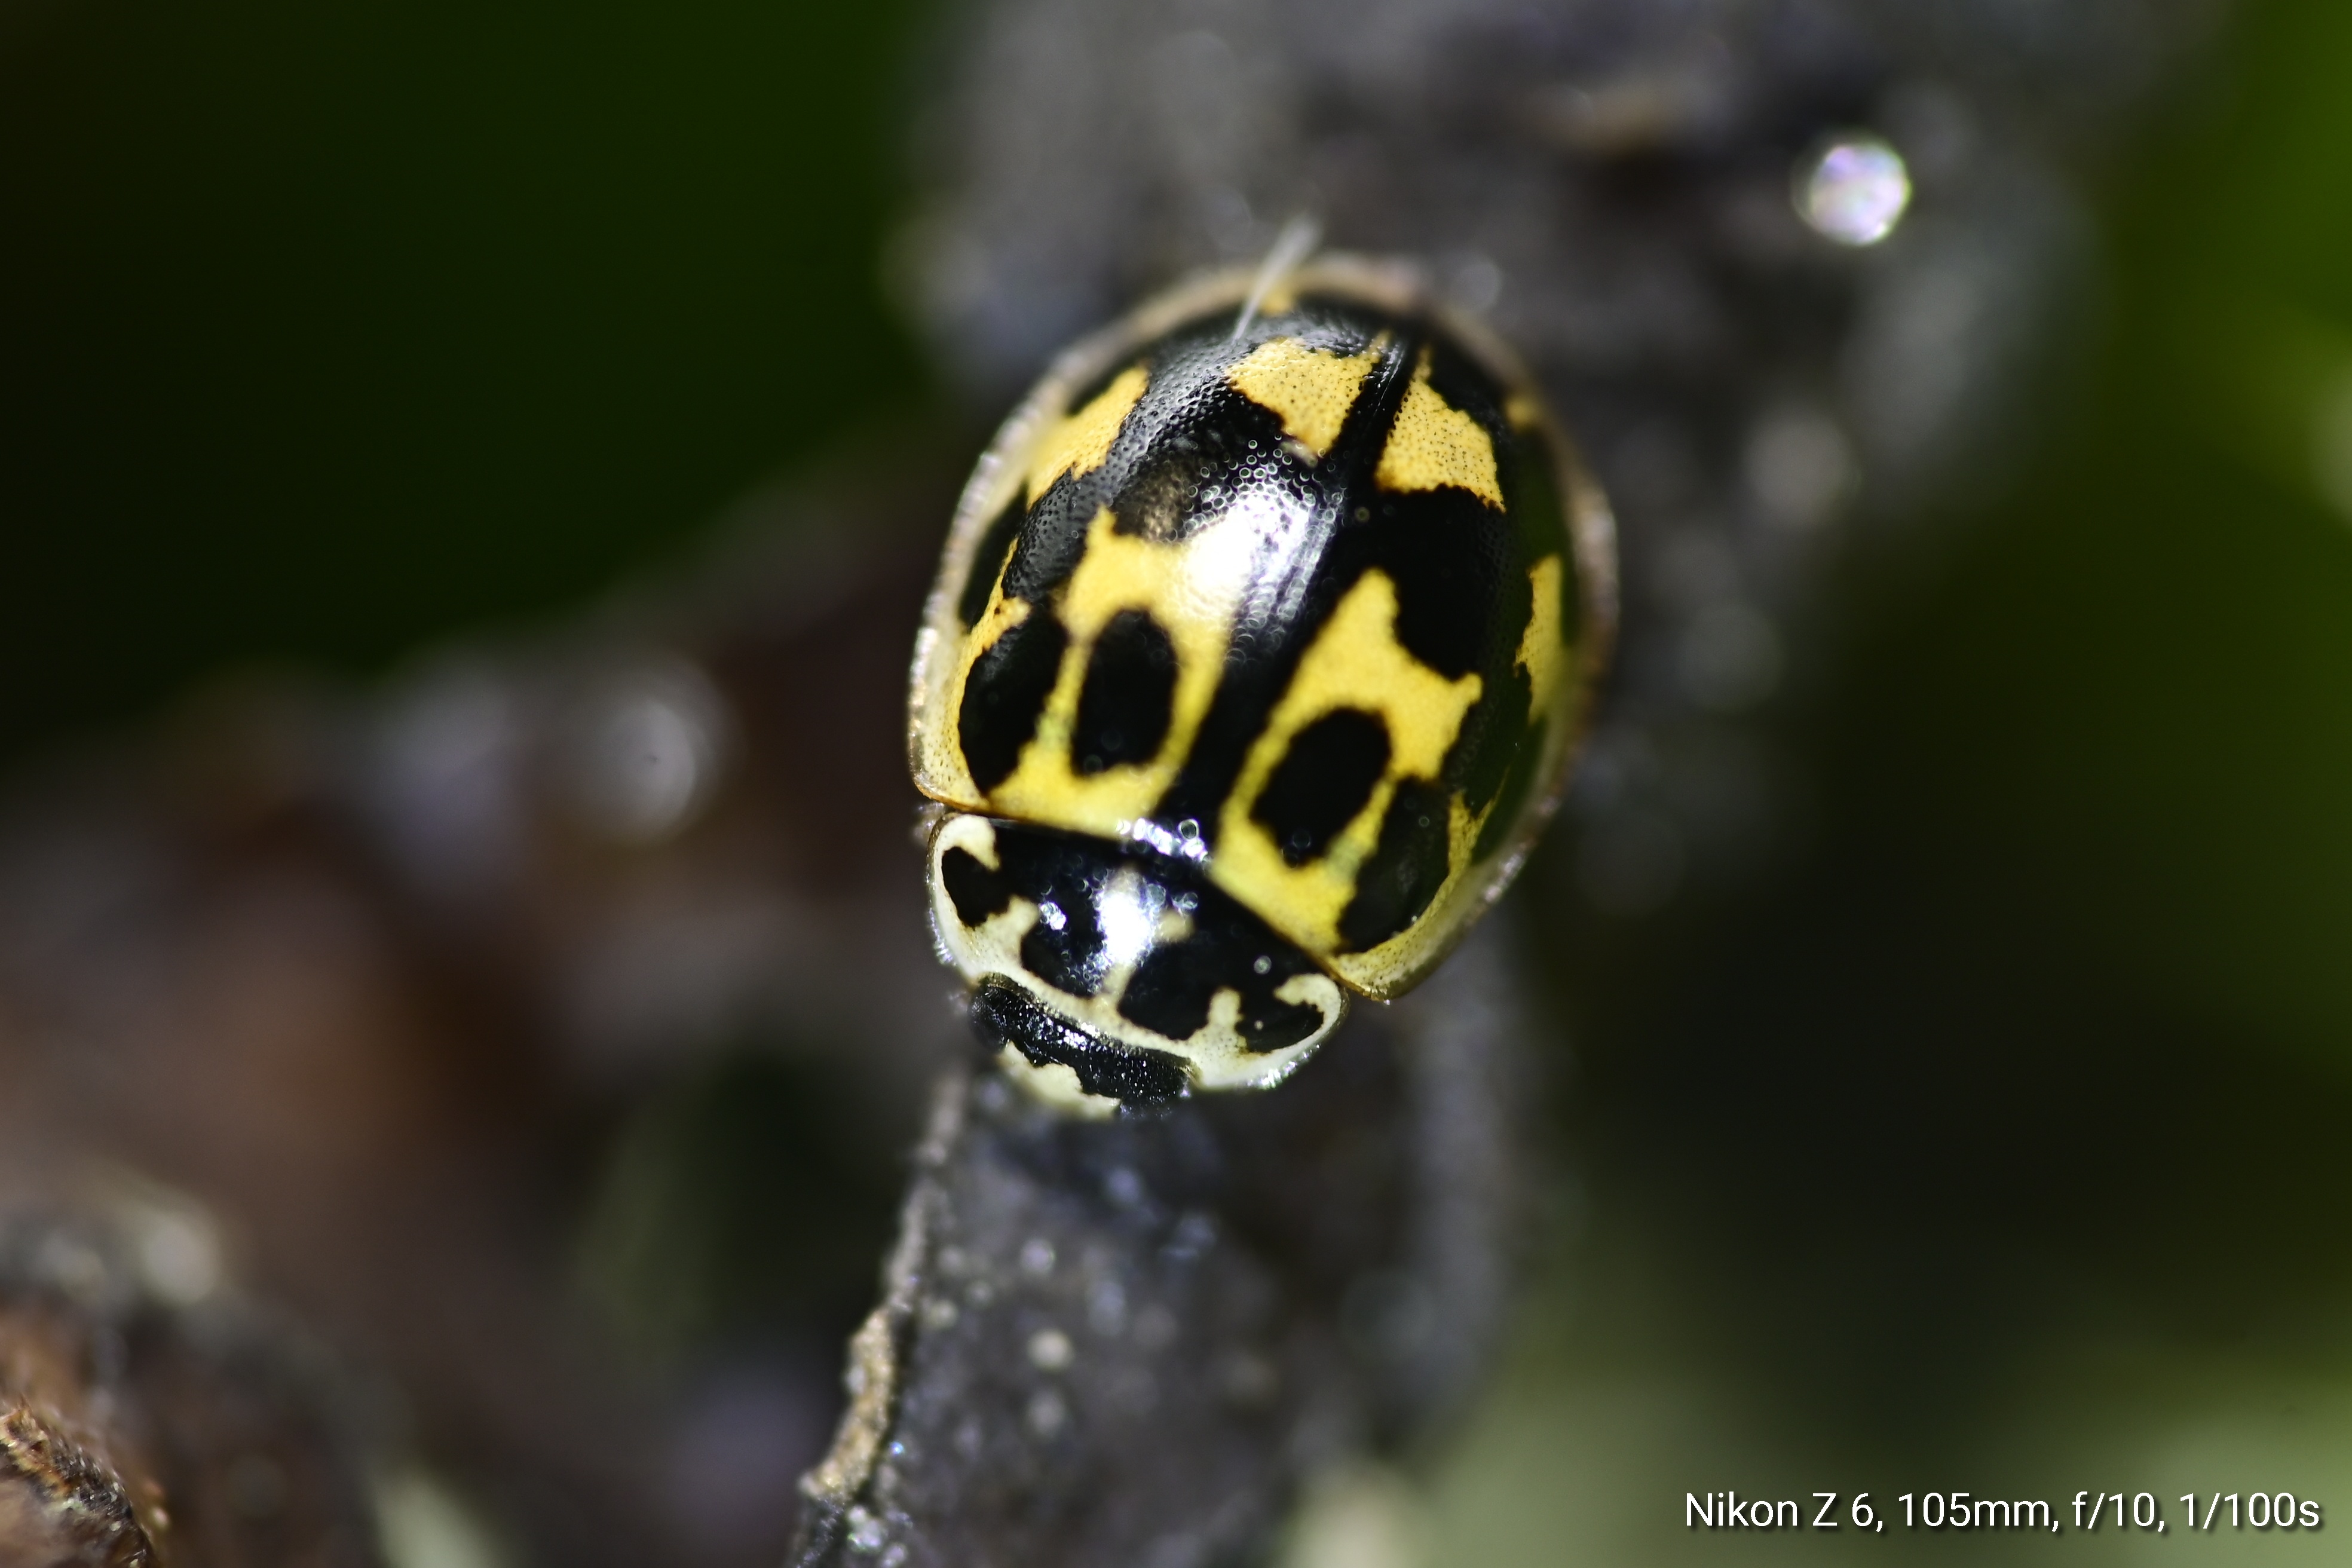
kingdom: Animalia
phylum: Arthropoda
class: Insecta
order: Coleoptera
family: Coccinellidae
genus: Oenopia
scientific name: Oenopia conglobata
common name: Ladybird beetle
